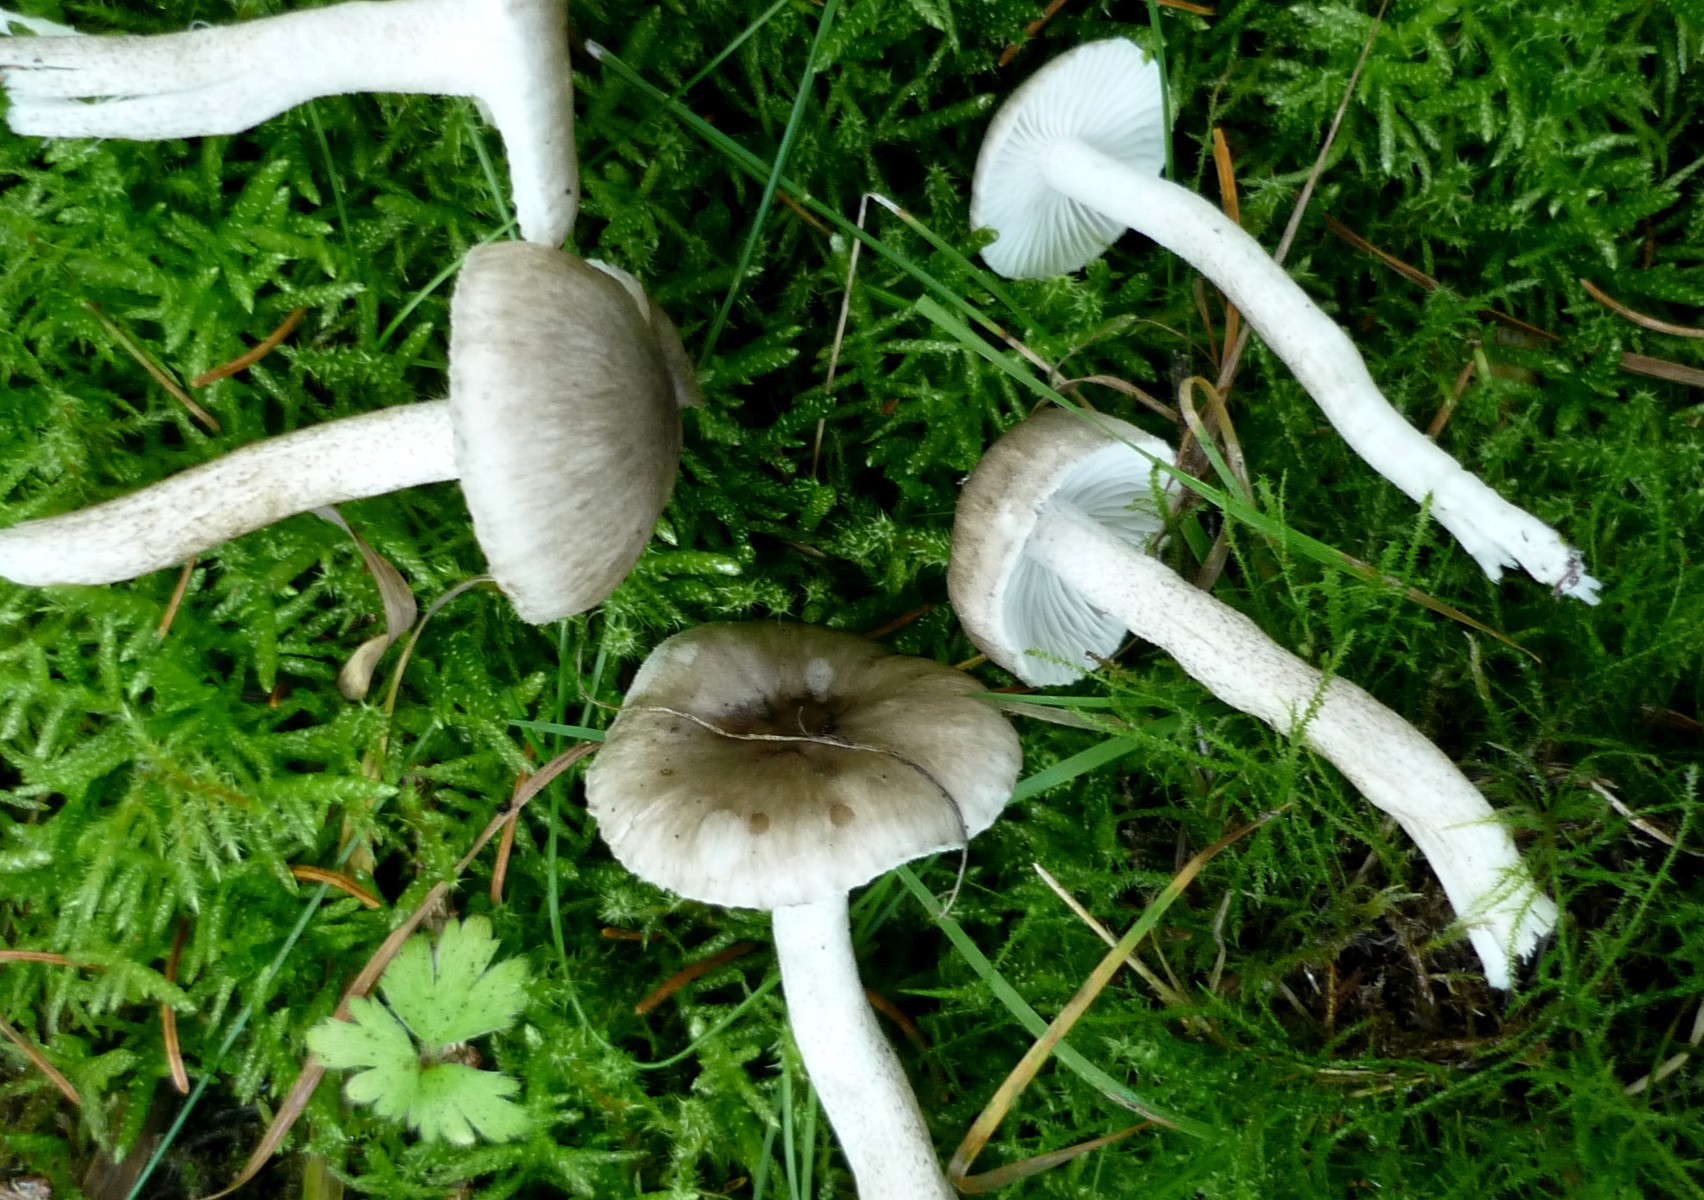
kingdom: Fungi
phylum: Basidiomycota
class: Agaricomycetes
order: Agaricales
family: Hygrophoraceae
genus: Hygrophorus
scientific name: Hygrophorus pustulatus
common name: mørkprikket sneglehat
